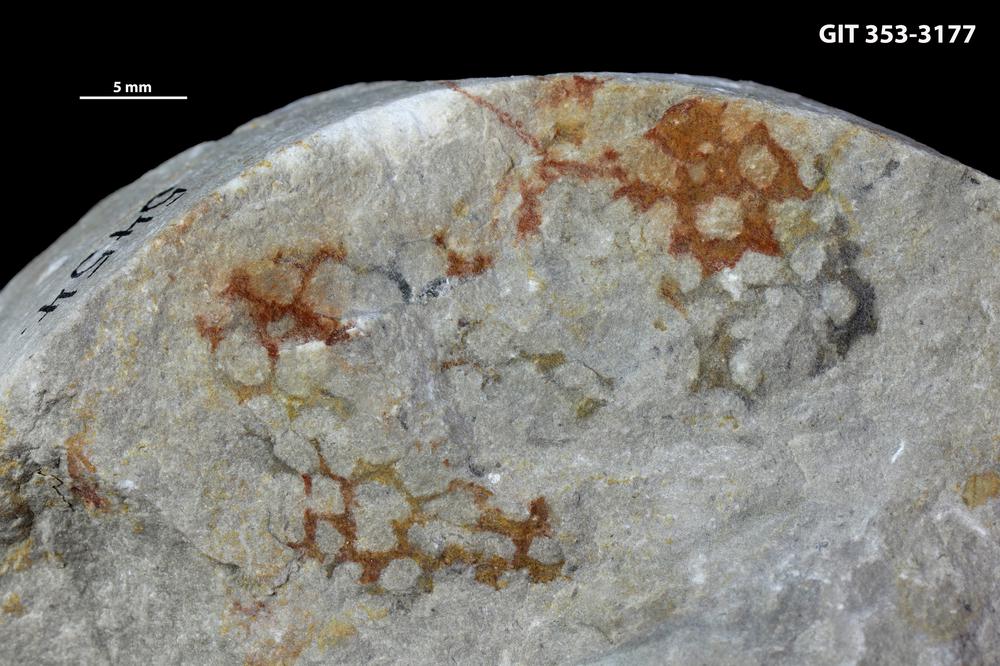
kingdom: Animalia
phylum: Hemichordata
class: Pterobranchia
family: Dendrograptidae
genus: Polygonograptus
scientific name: Polygonograptus
